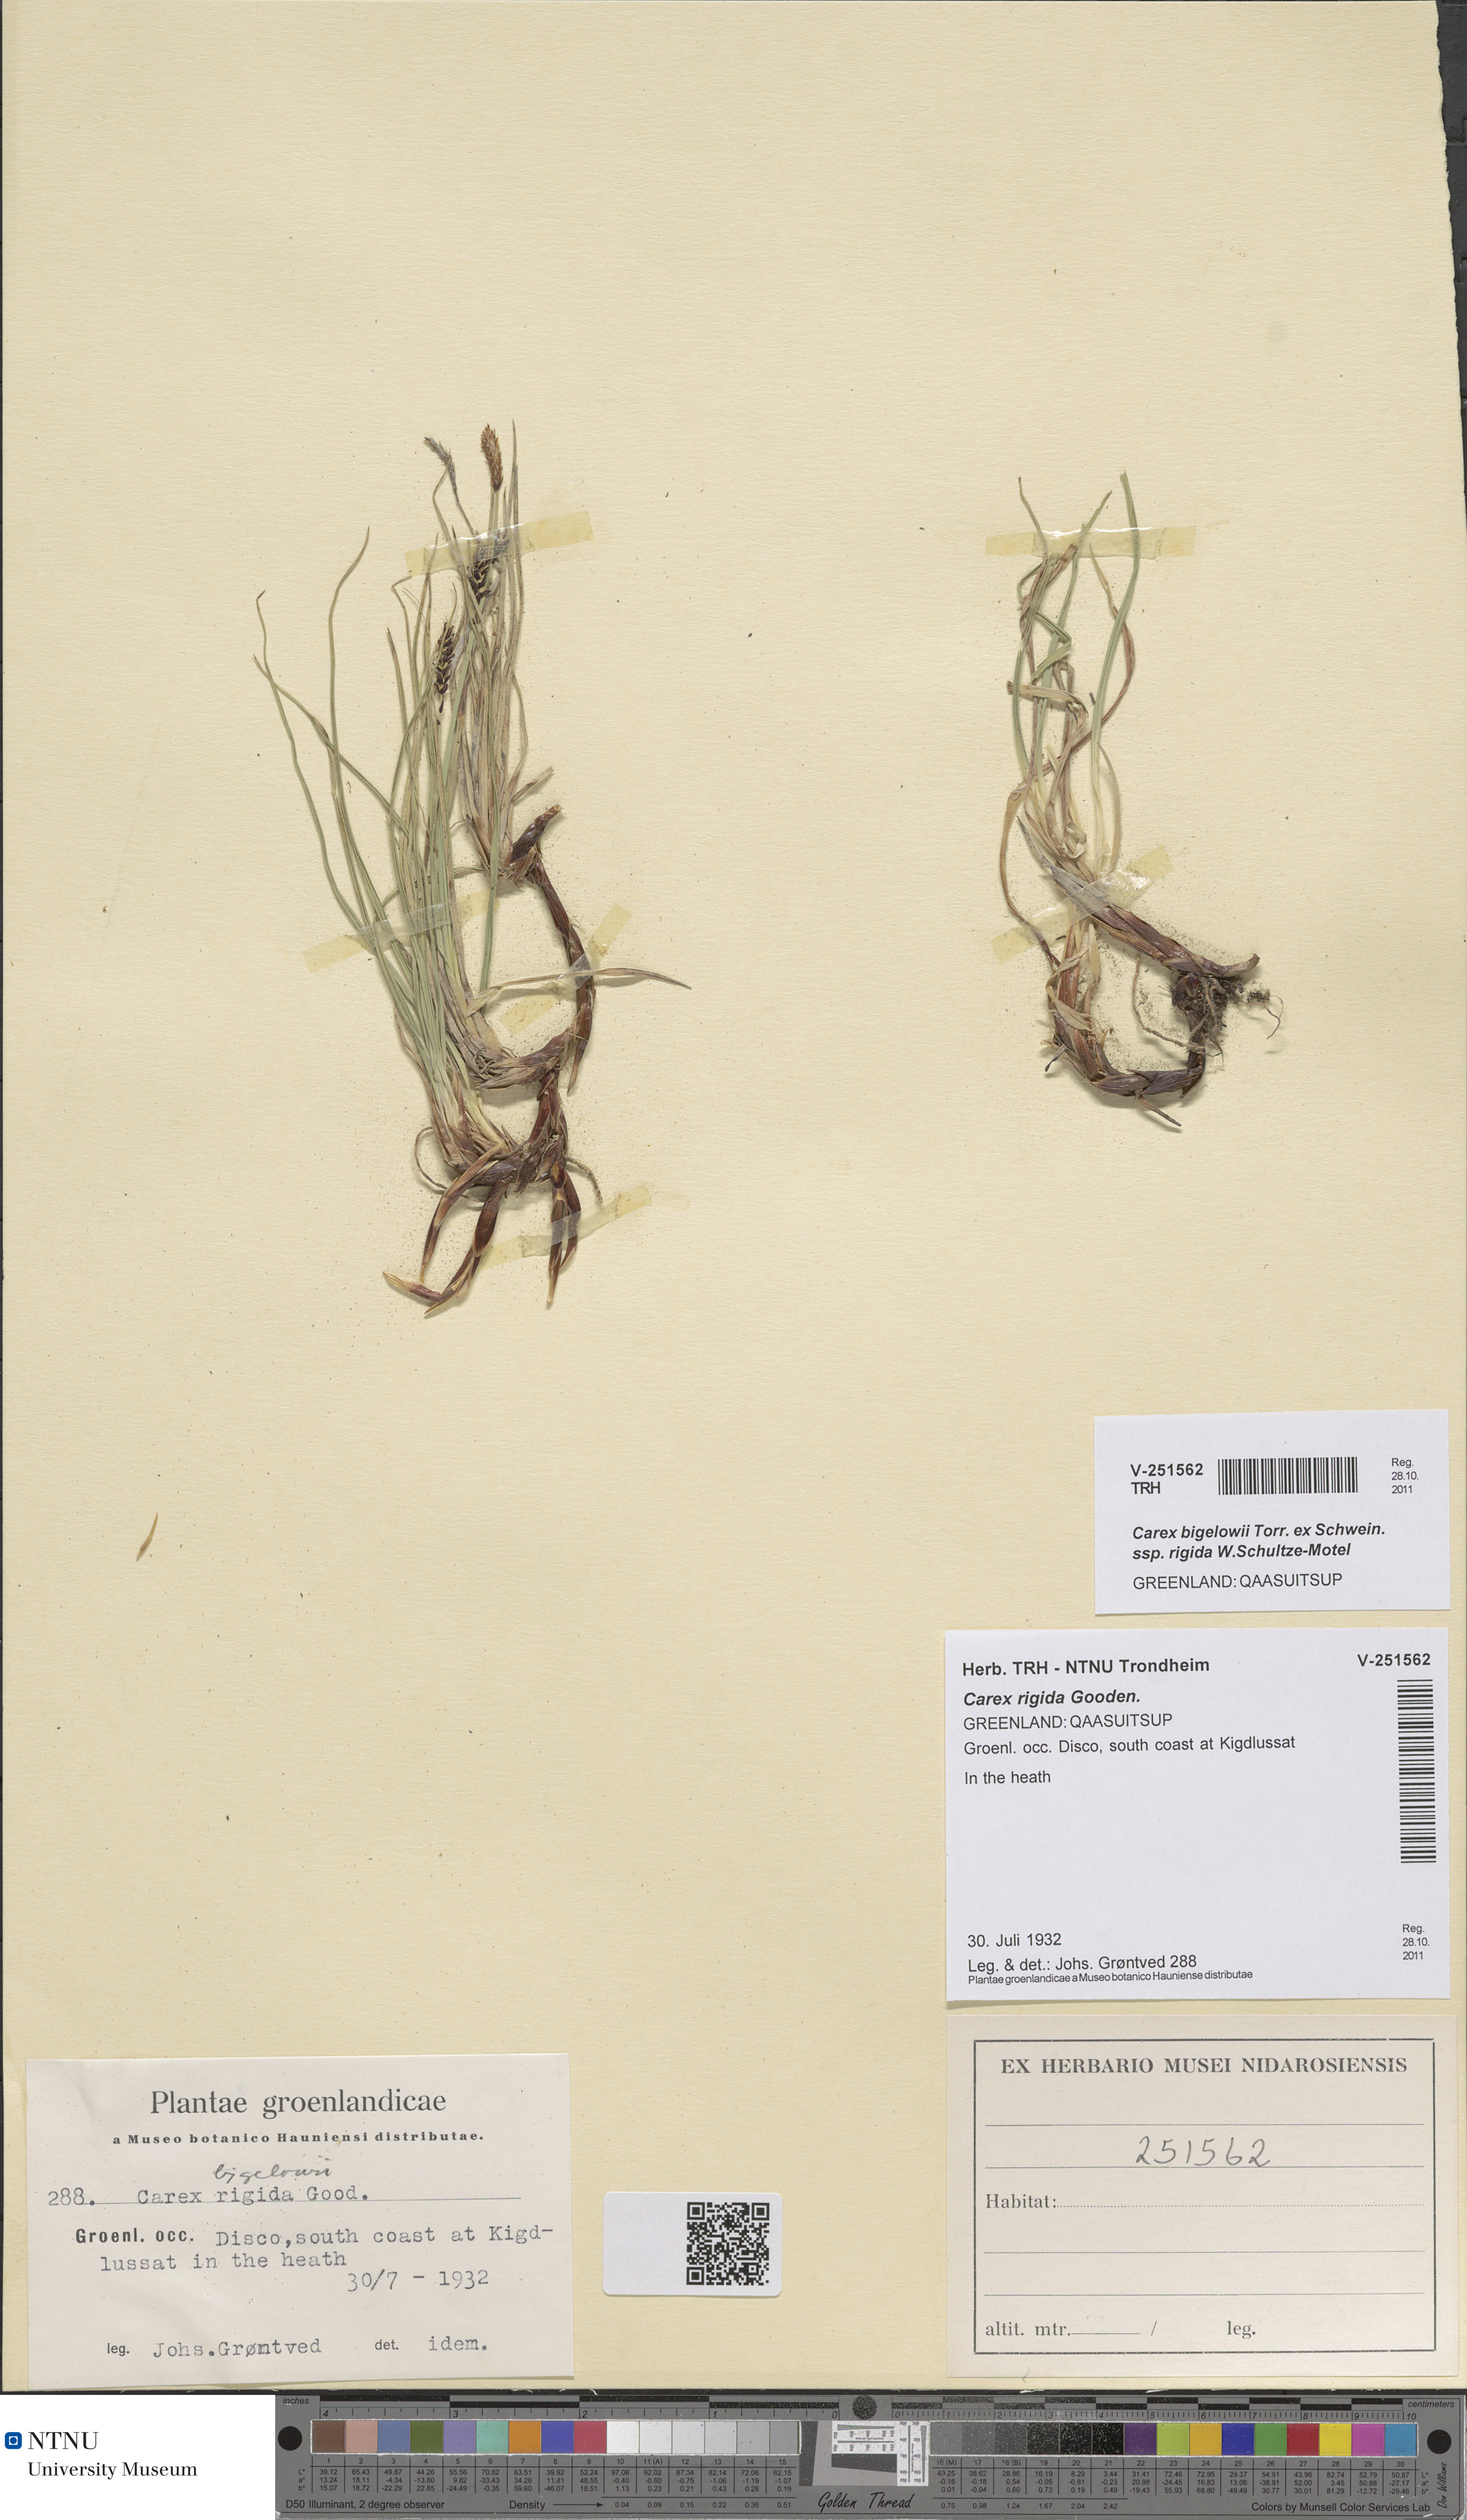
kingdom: Plantae
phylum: Tracheophyta
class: Liliopsida
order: Poales
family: Cyperaceae
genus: Carex
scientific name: Carex dacica
